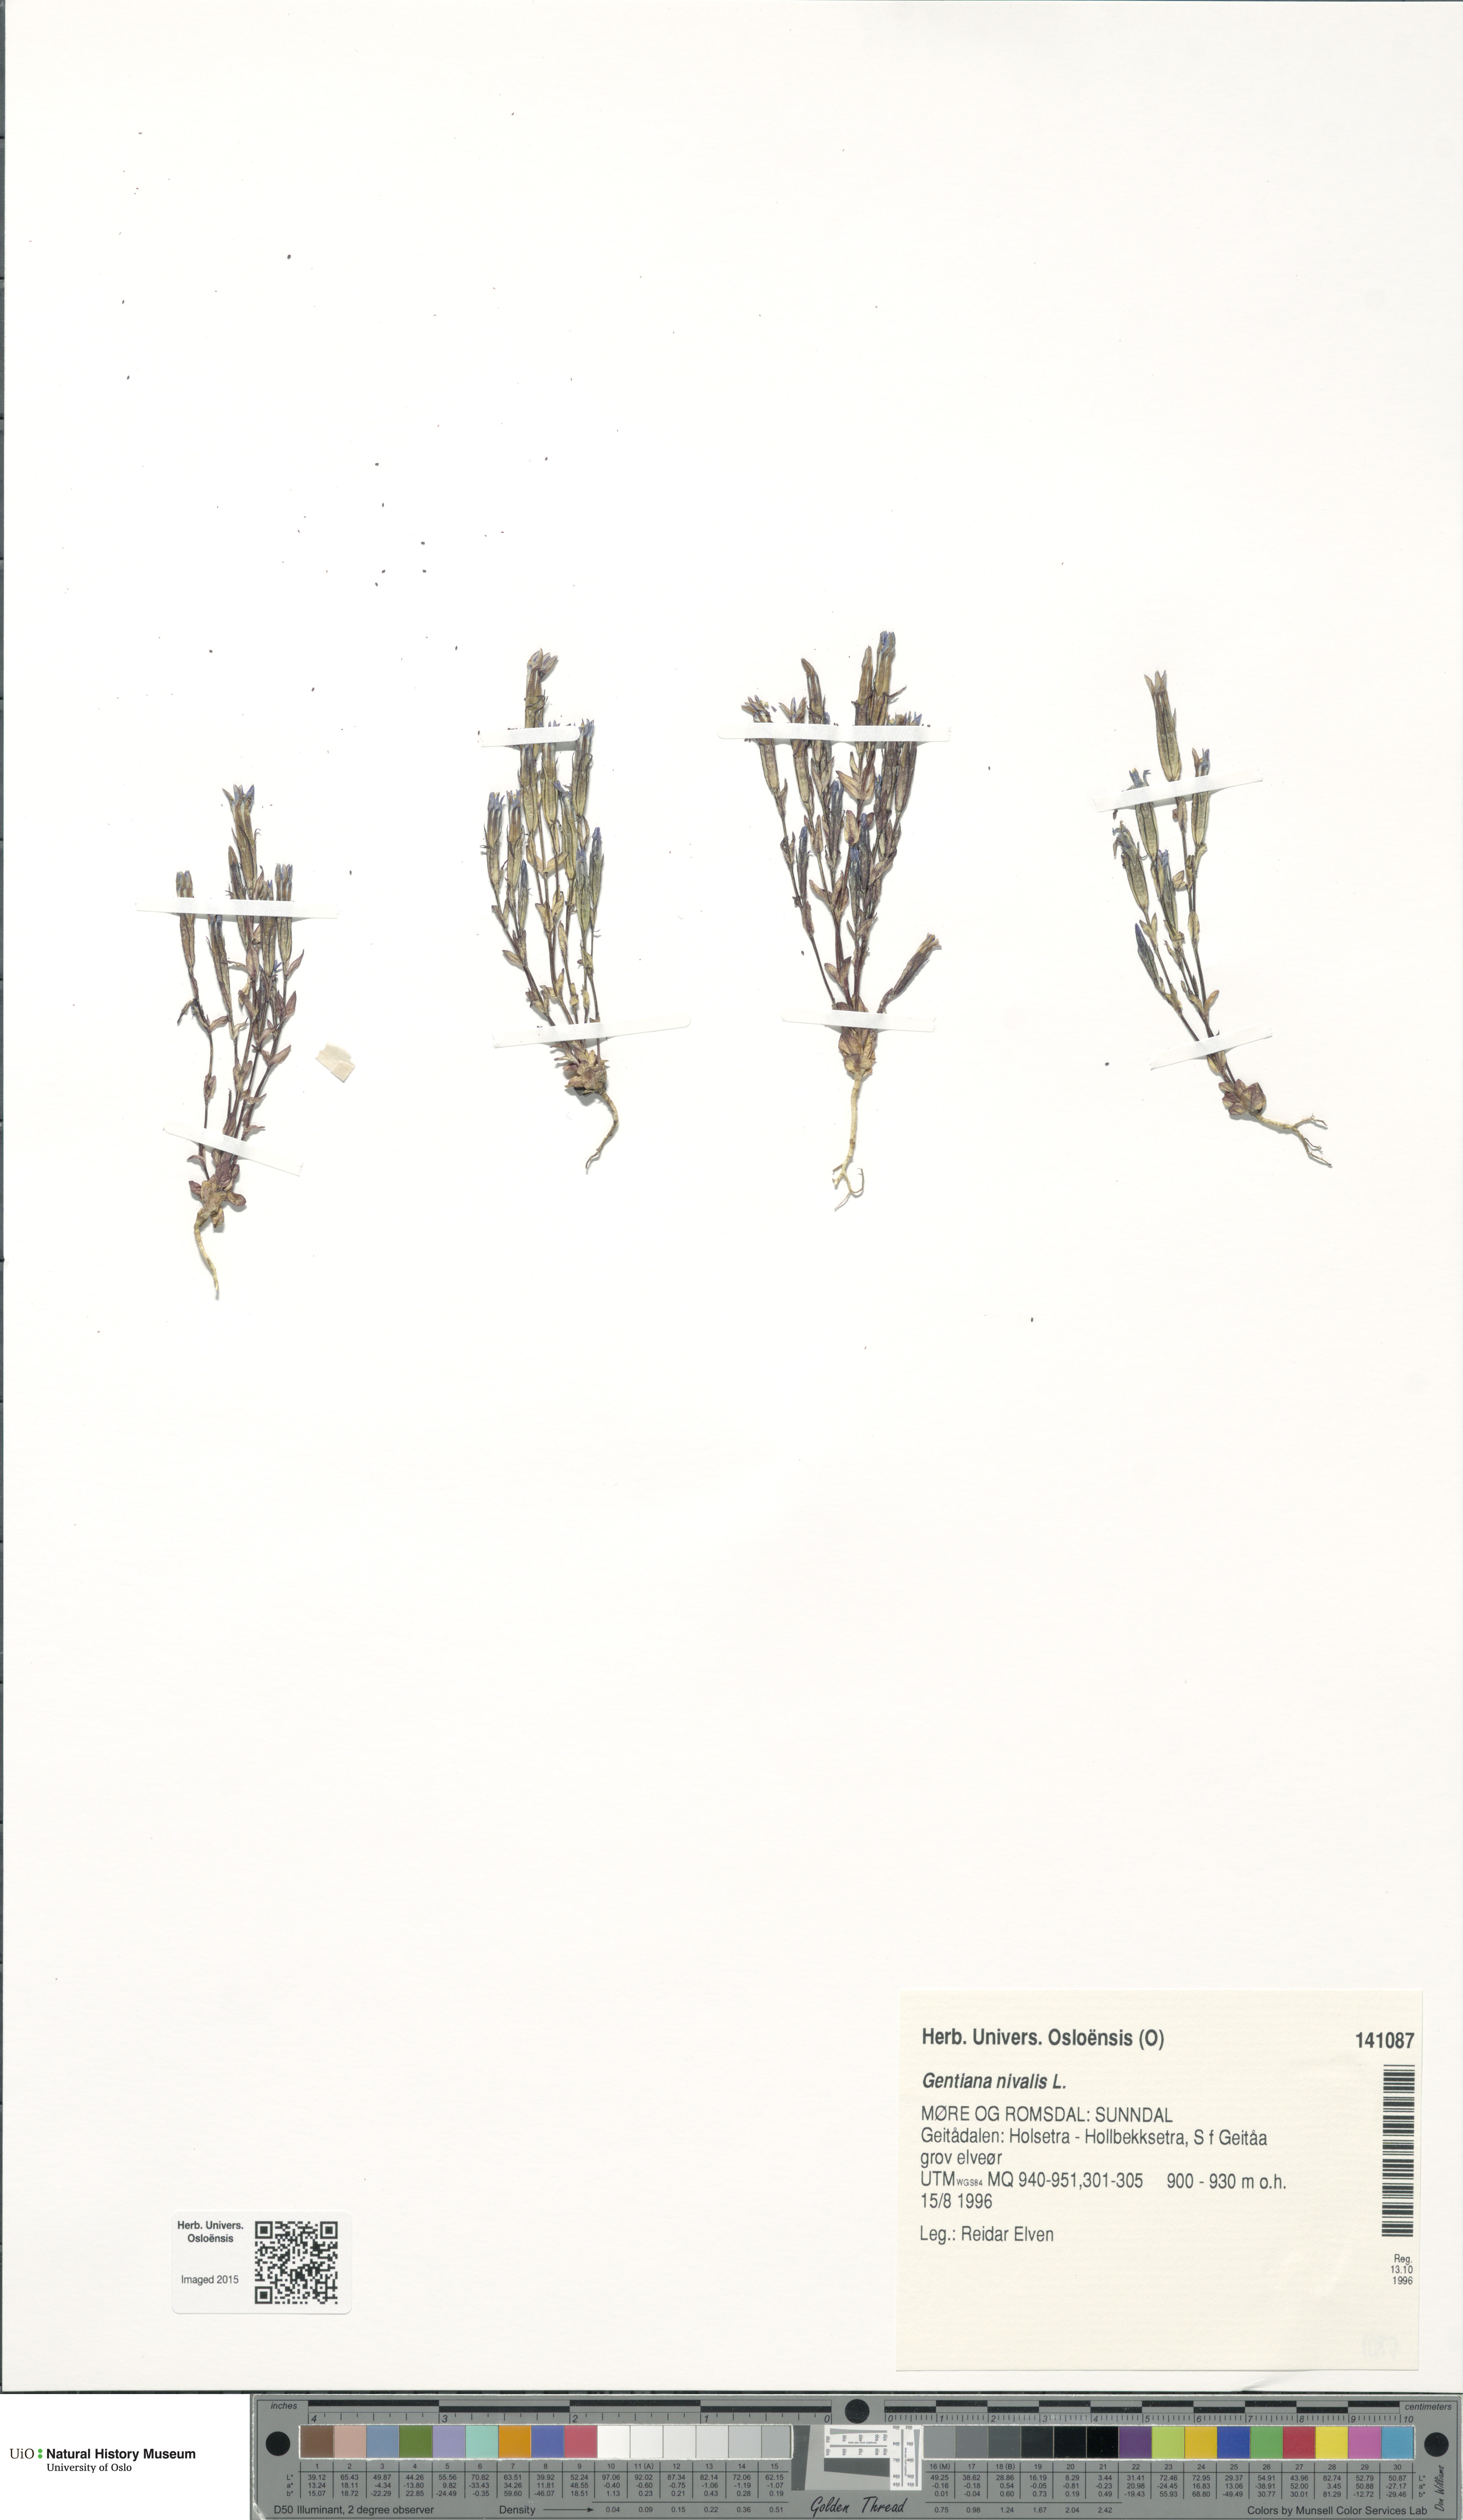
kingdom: Plantae
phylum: Tracheophyta
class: Magnoliopsida
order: Gentianales
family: Gentianaceae
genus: Gentiana
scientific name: Gentiana nivalis
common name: Alpine gentian
